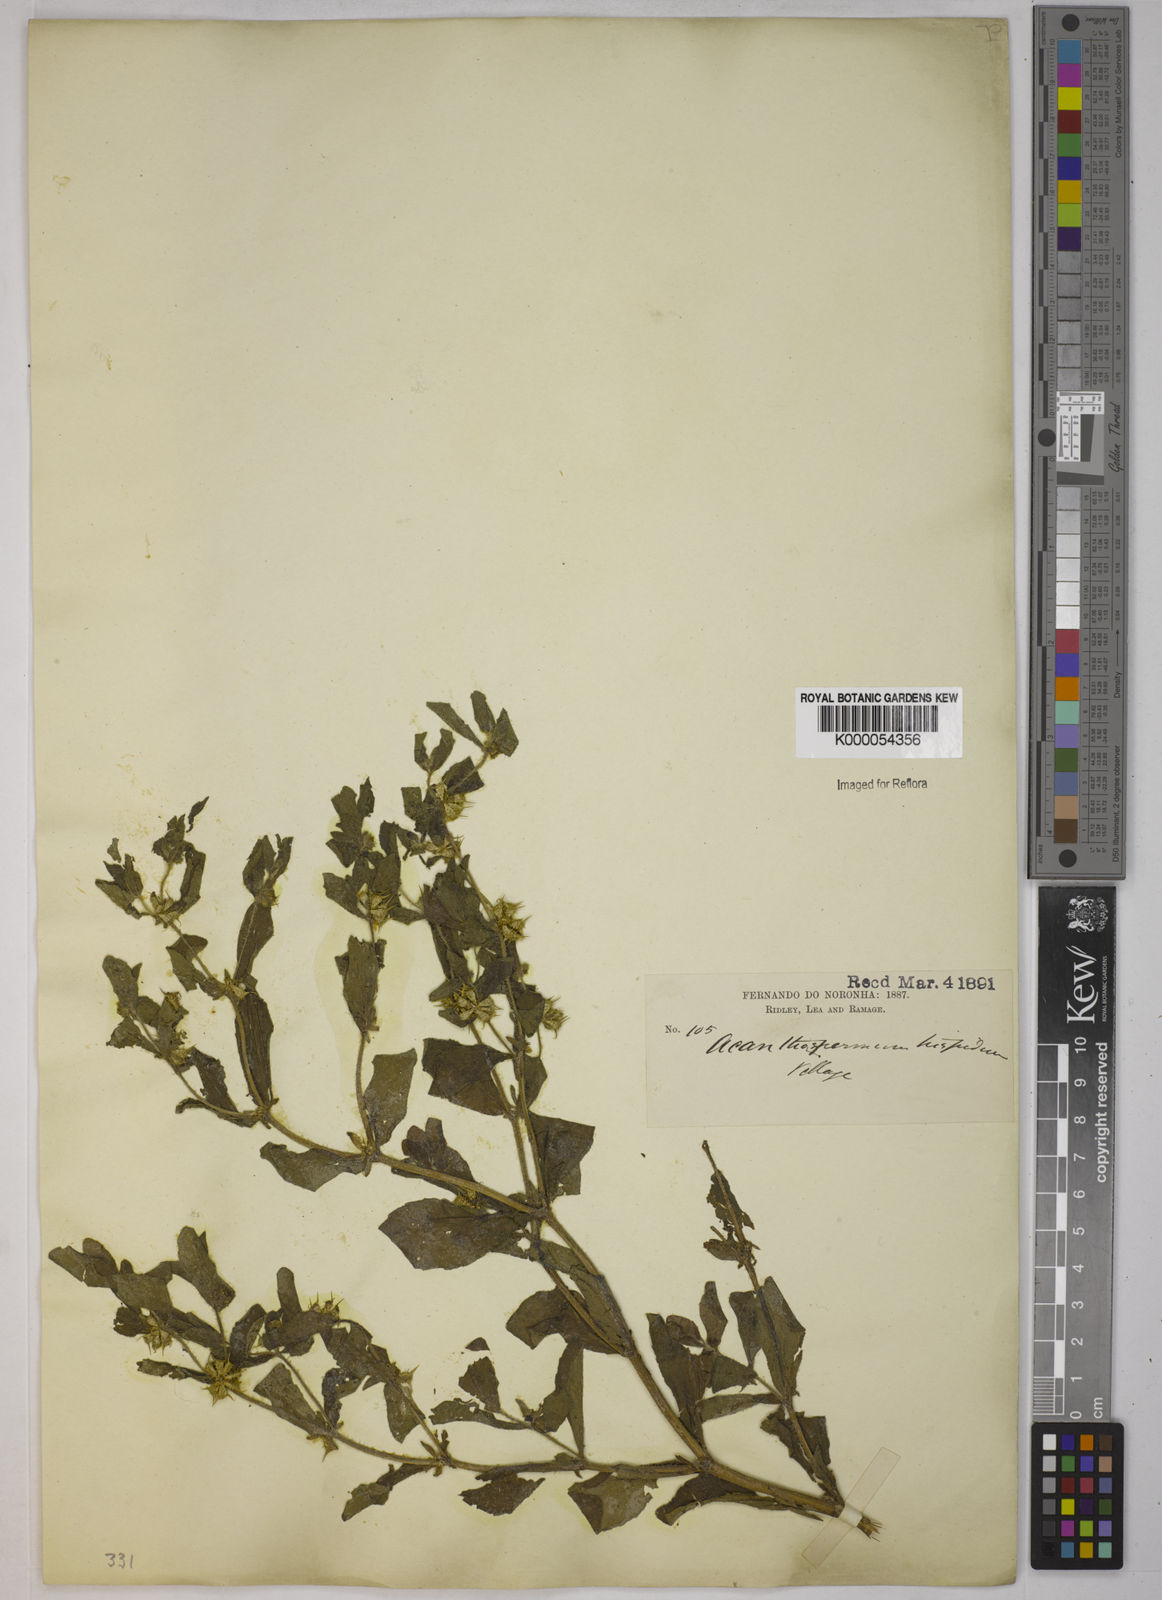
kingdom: Plantae
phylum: Tracheophyta
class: Magnoliopsida
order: Asterales
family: Asteraceae
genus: Acanthospermum
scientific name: Acanthospermum hispidum
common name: Hispid starbur
